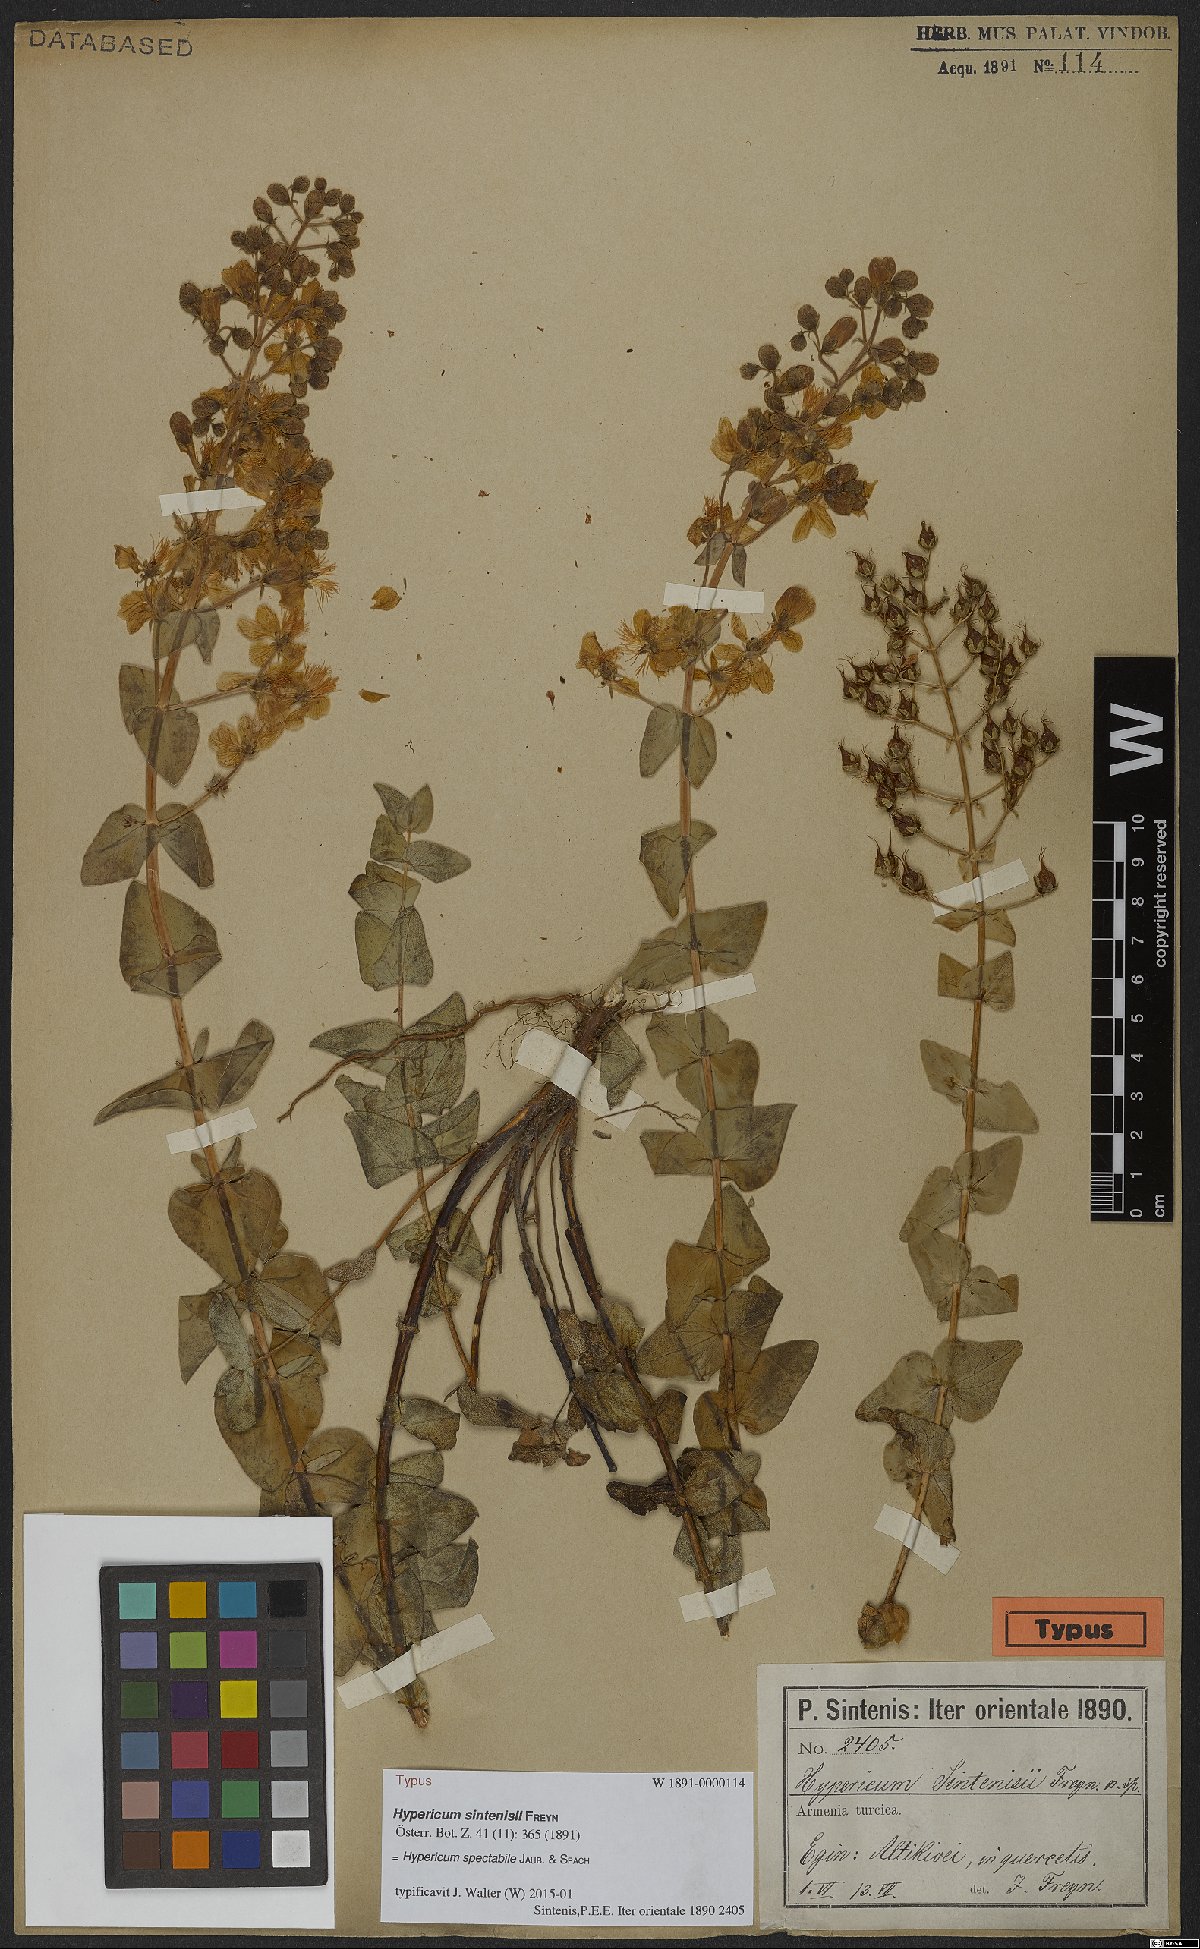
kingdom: Plantae
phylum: Tracheophyta
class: Magnoliopsida
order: Malpighiales
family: Hypericaceae
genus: Hypericum
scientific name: Hypericum spectabile
